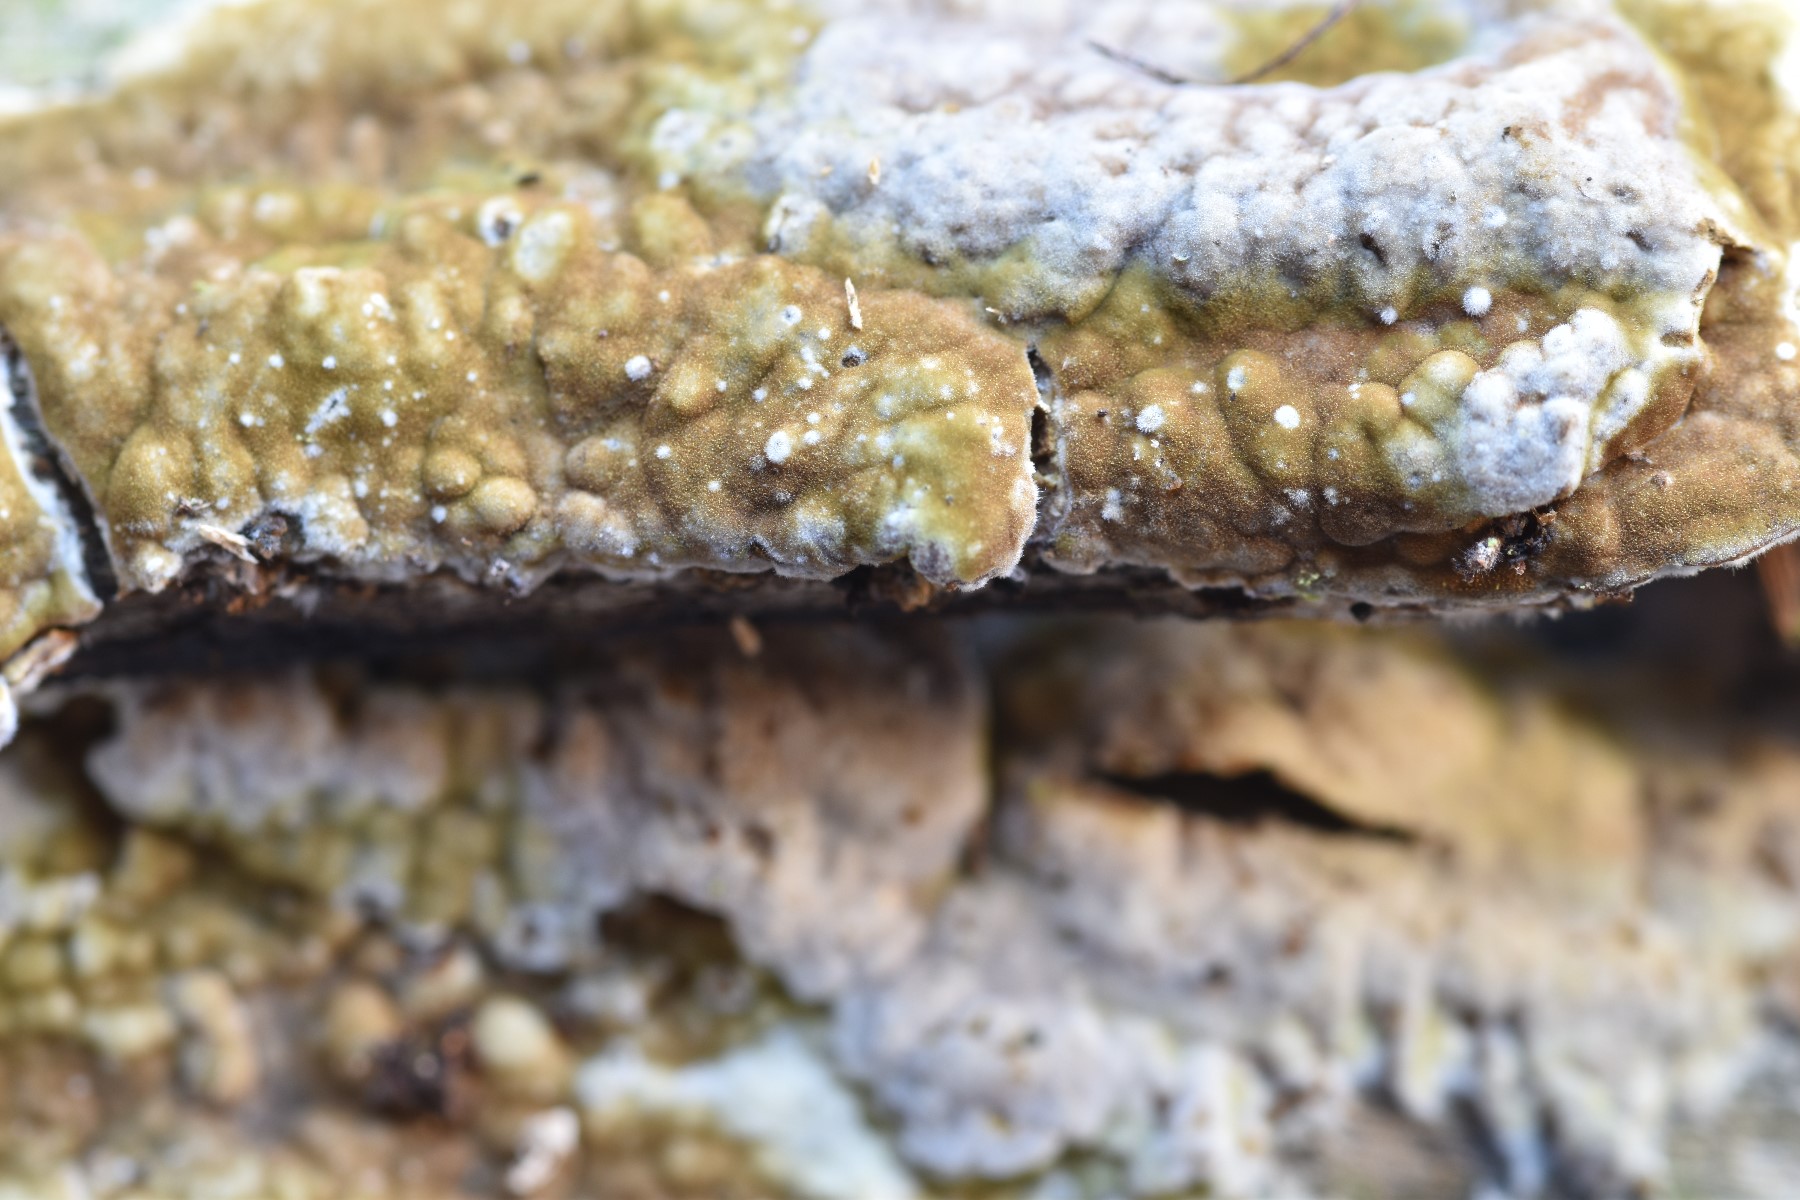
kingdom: Fungi
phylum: Basidiomycota
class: Agaricomycetes
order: Boletales
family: Coniophoraceae
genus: Coniophora
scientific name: Coniophora puteana
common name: gul tømmersvamp
